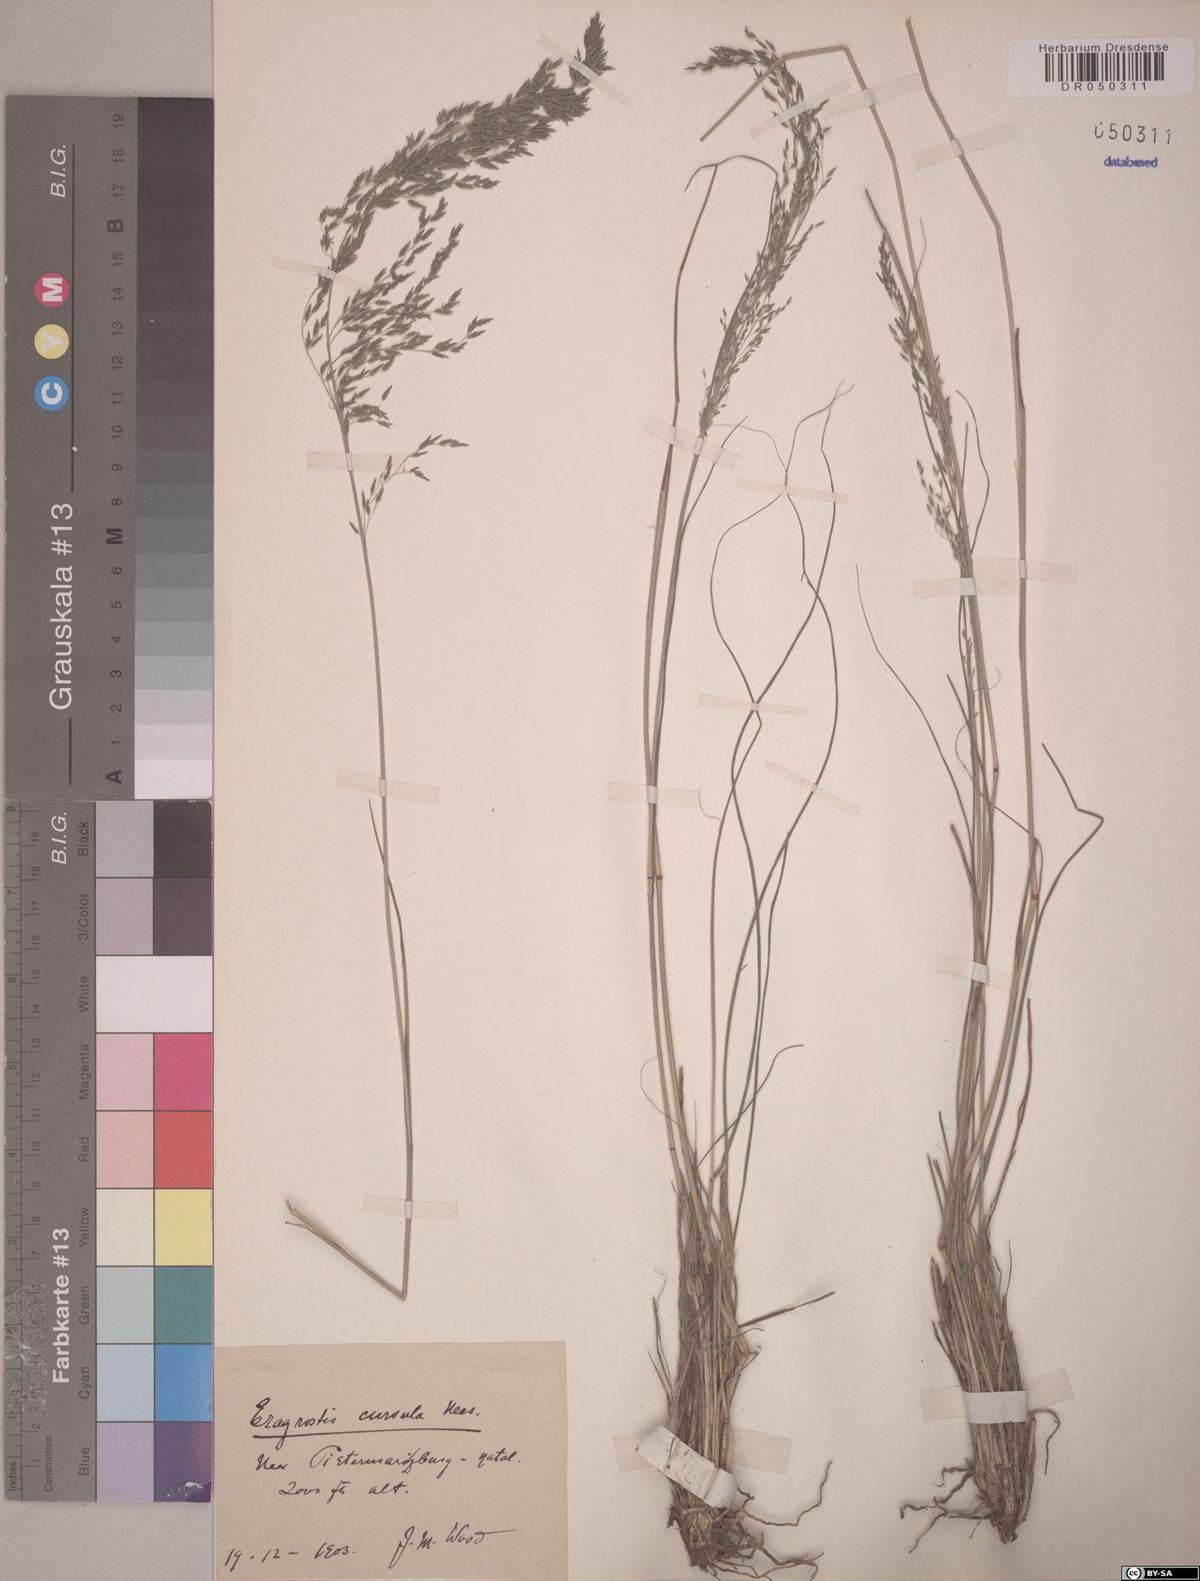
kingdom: Plantae
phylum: Tracheophyta
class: Liliopsida
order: Poales
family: Poaceae
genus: Eragrostis
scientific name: Eragrostis curvula
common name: African love-grass
